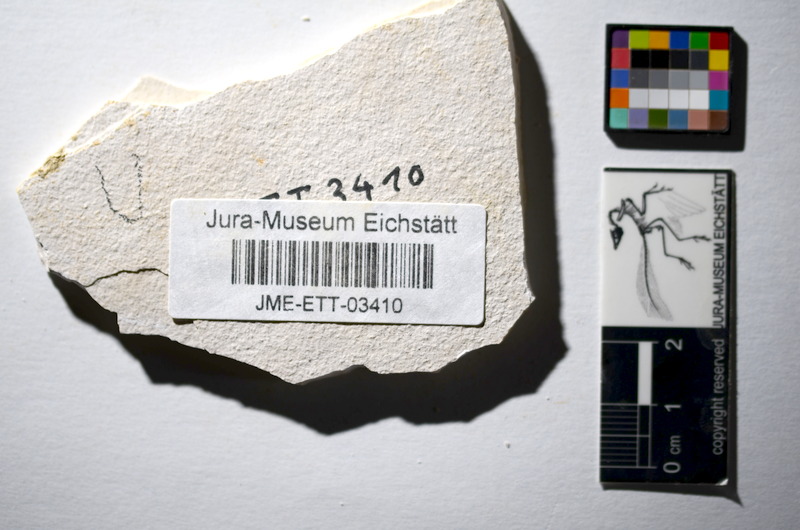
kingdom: Animalia
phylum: Chordata
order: Salmoniformes
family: Orthogonikleithridae
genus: Orthogonikleithrus
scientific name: Orthogonikleithrus hoelli
